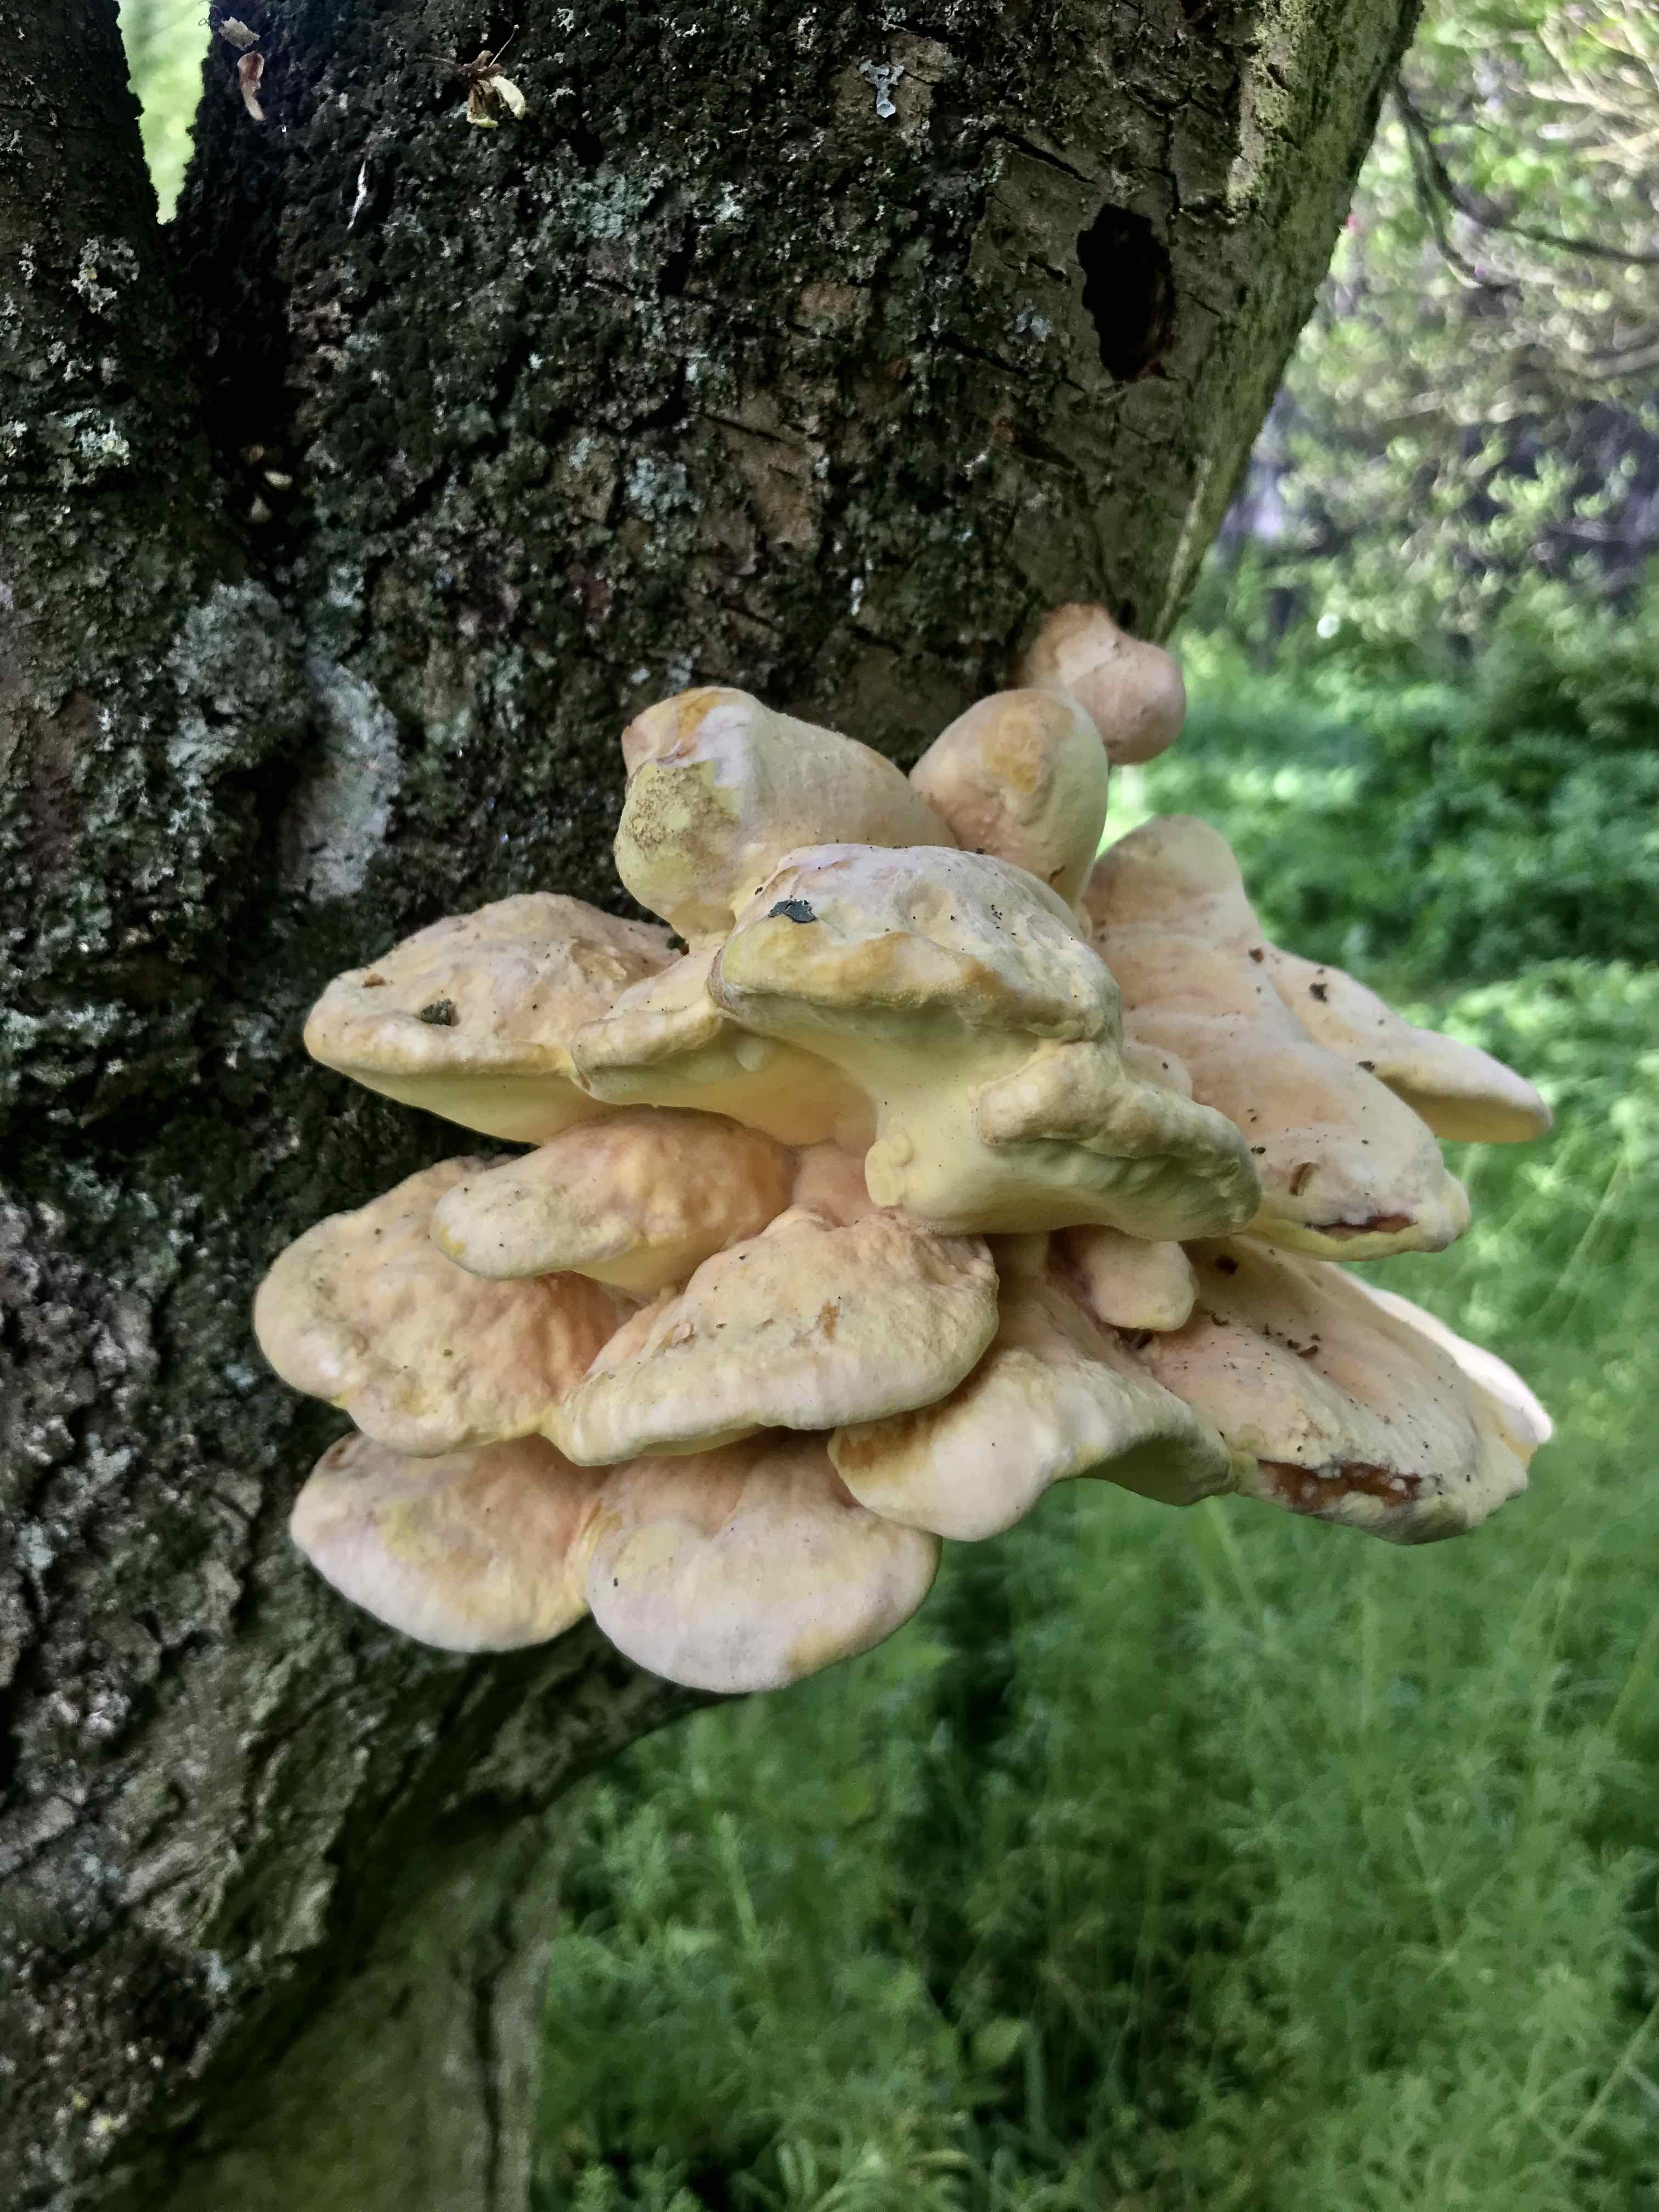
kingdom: Fungi
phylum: Basidiomycota
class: Agaricomycetes
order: Polyporales
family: Laetiporaceae
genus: Laetiporus
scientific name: Laetiporus sulphureus
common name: svovlporesvamp
